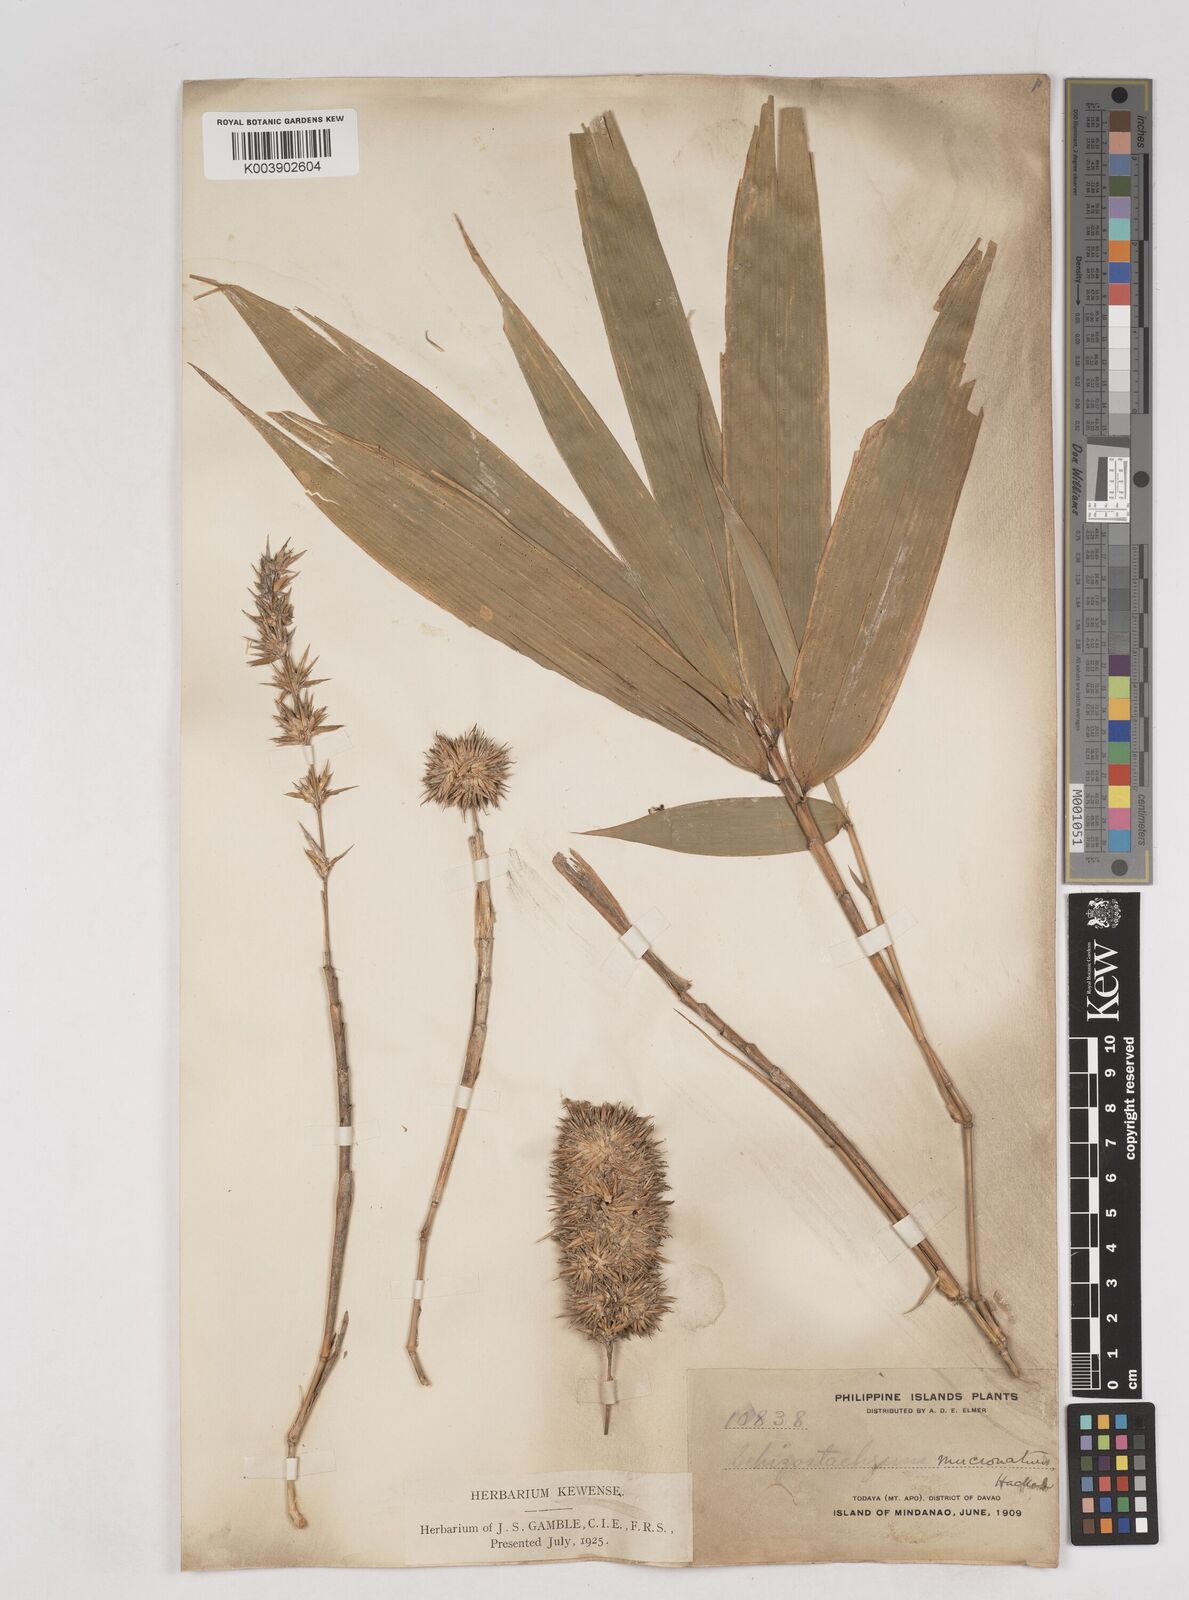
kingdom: Plantae
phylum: Tracheophyta
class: Liliopsida
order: Poales
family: Poaceae
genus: Schizostachyum
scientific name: Schizostachyum brachycladum
